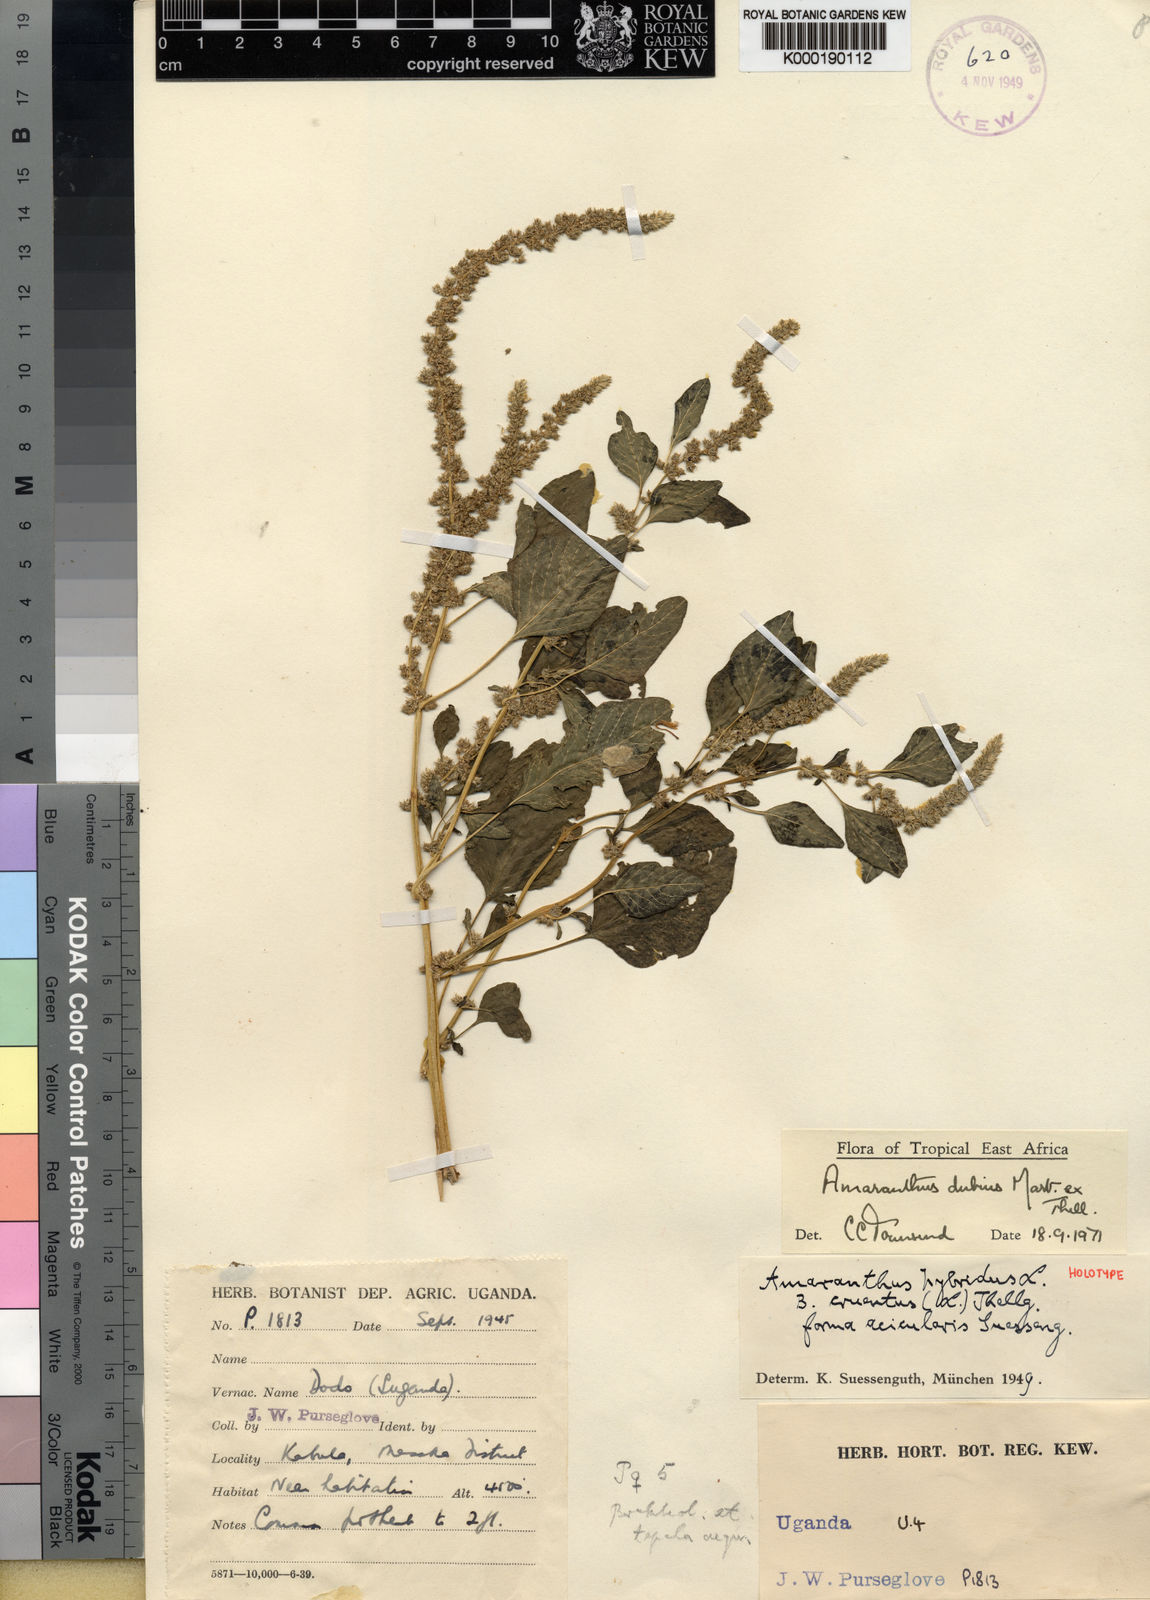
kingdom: Plantae
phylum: Tracheophyta
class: Magnoliopsida
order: Caryophyllales
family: Amaranthaceae
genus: Amaranthus
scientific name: Amaranthus dubius
